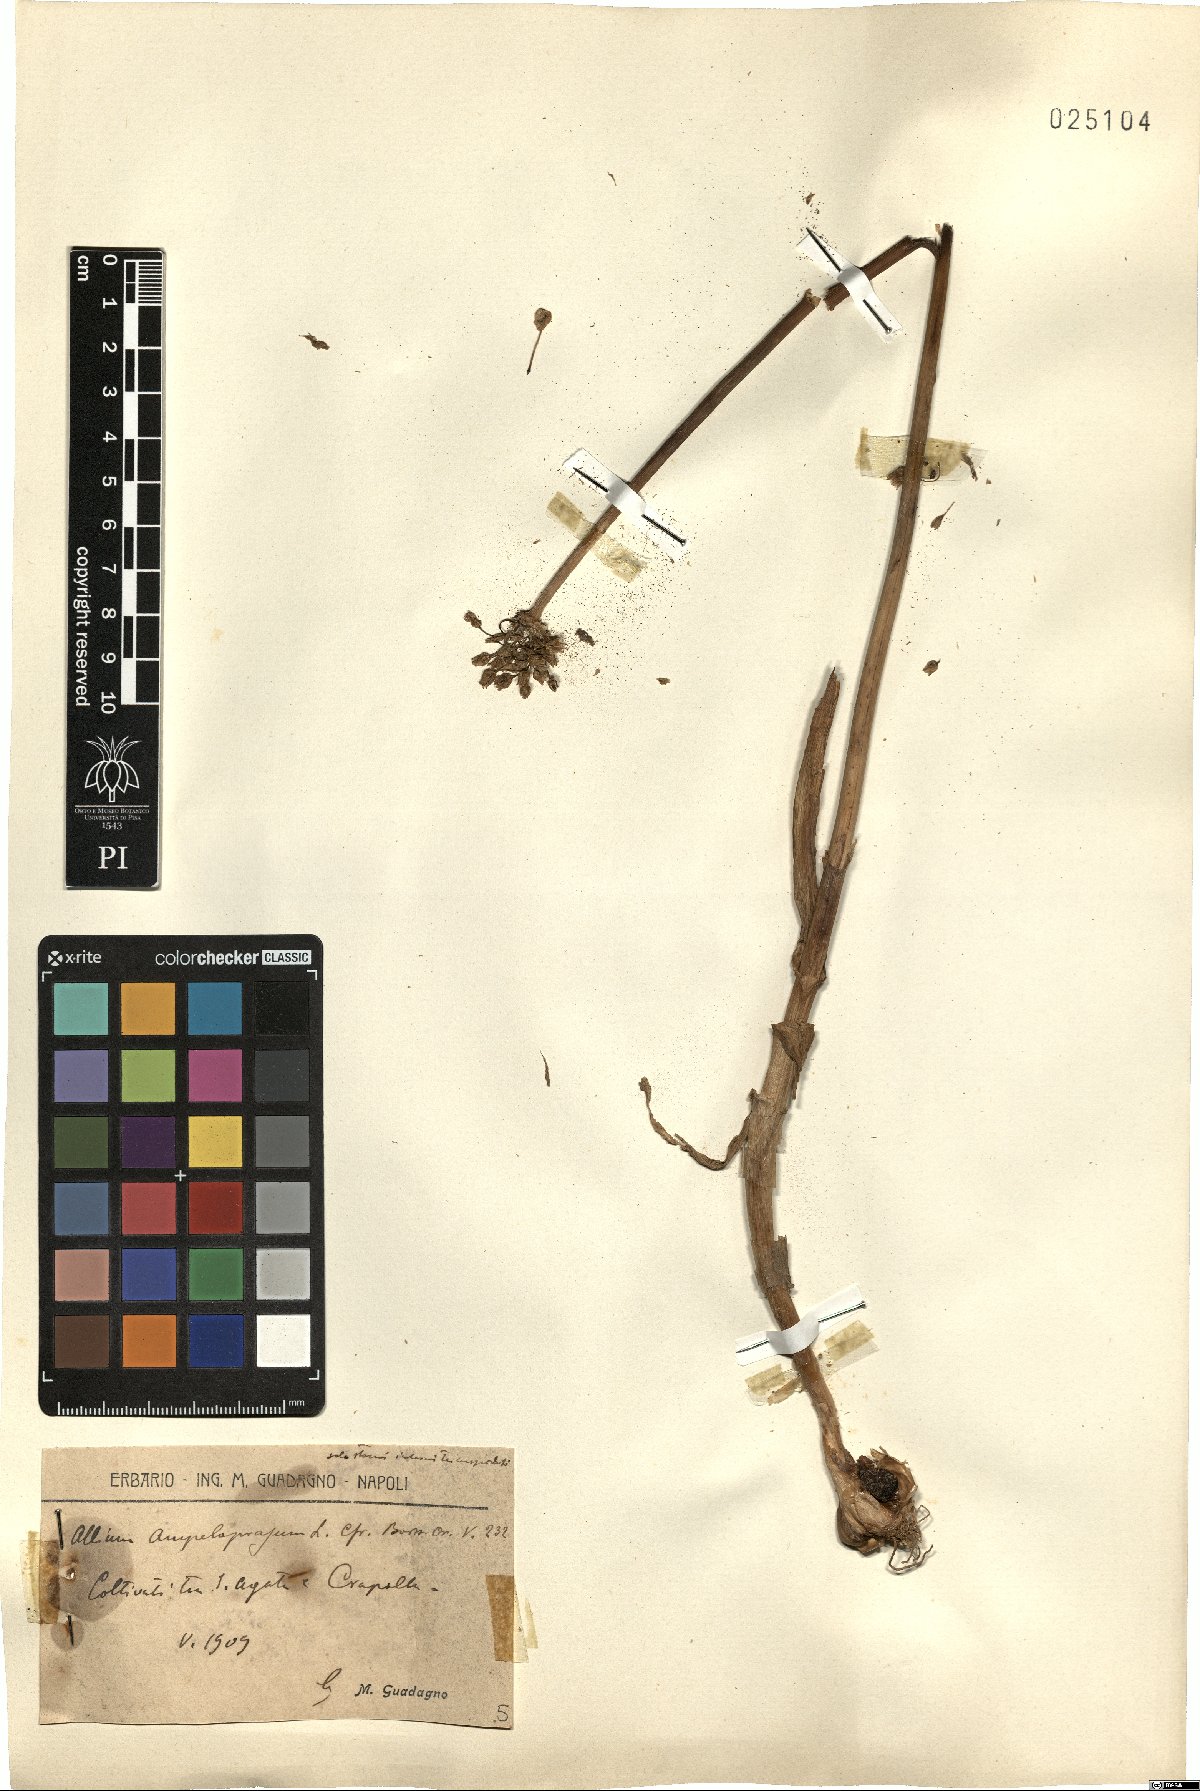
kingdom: Plantae
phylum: Tracheophyta
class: Liliopsida
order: Asparagales
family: Amaryllidaceae
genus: Allium
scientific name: Allium ampeloprasum
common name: Wild leek
